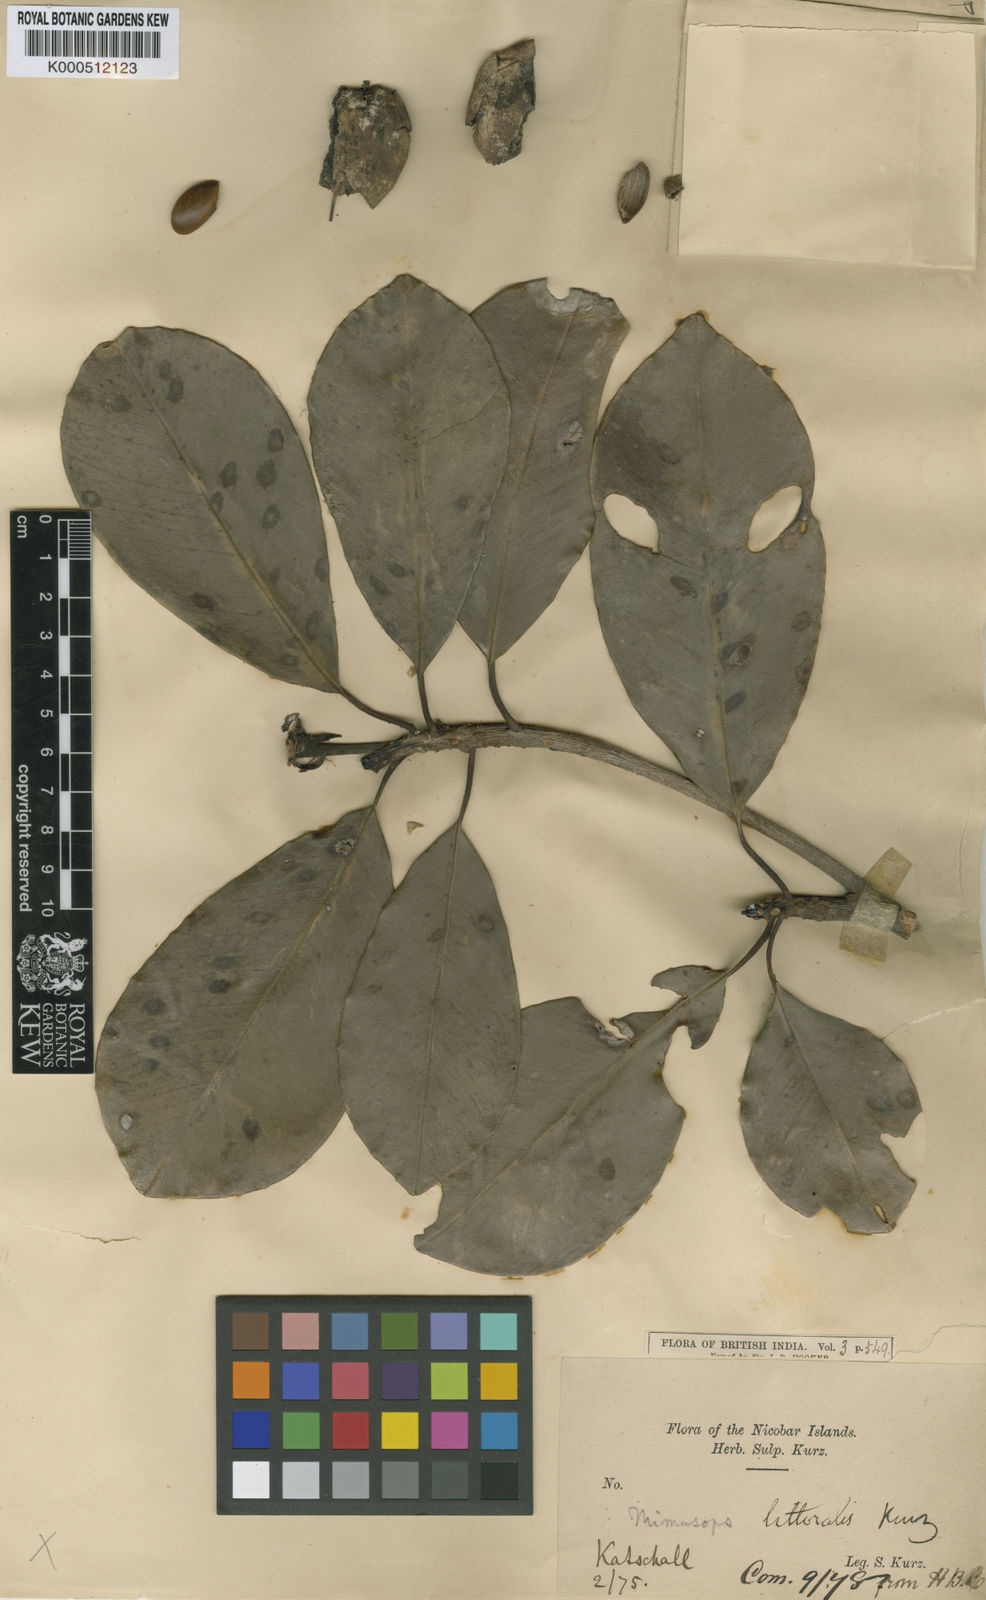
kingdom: Plantae
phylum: Tracheophyta
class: Magnoliopsida
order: Ericales
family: Sapotaceae
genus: Manilkara
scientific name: Manilkara hexandra
